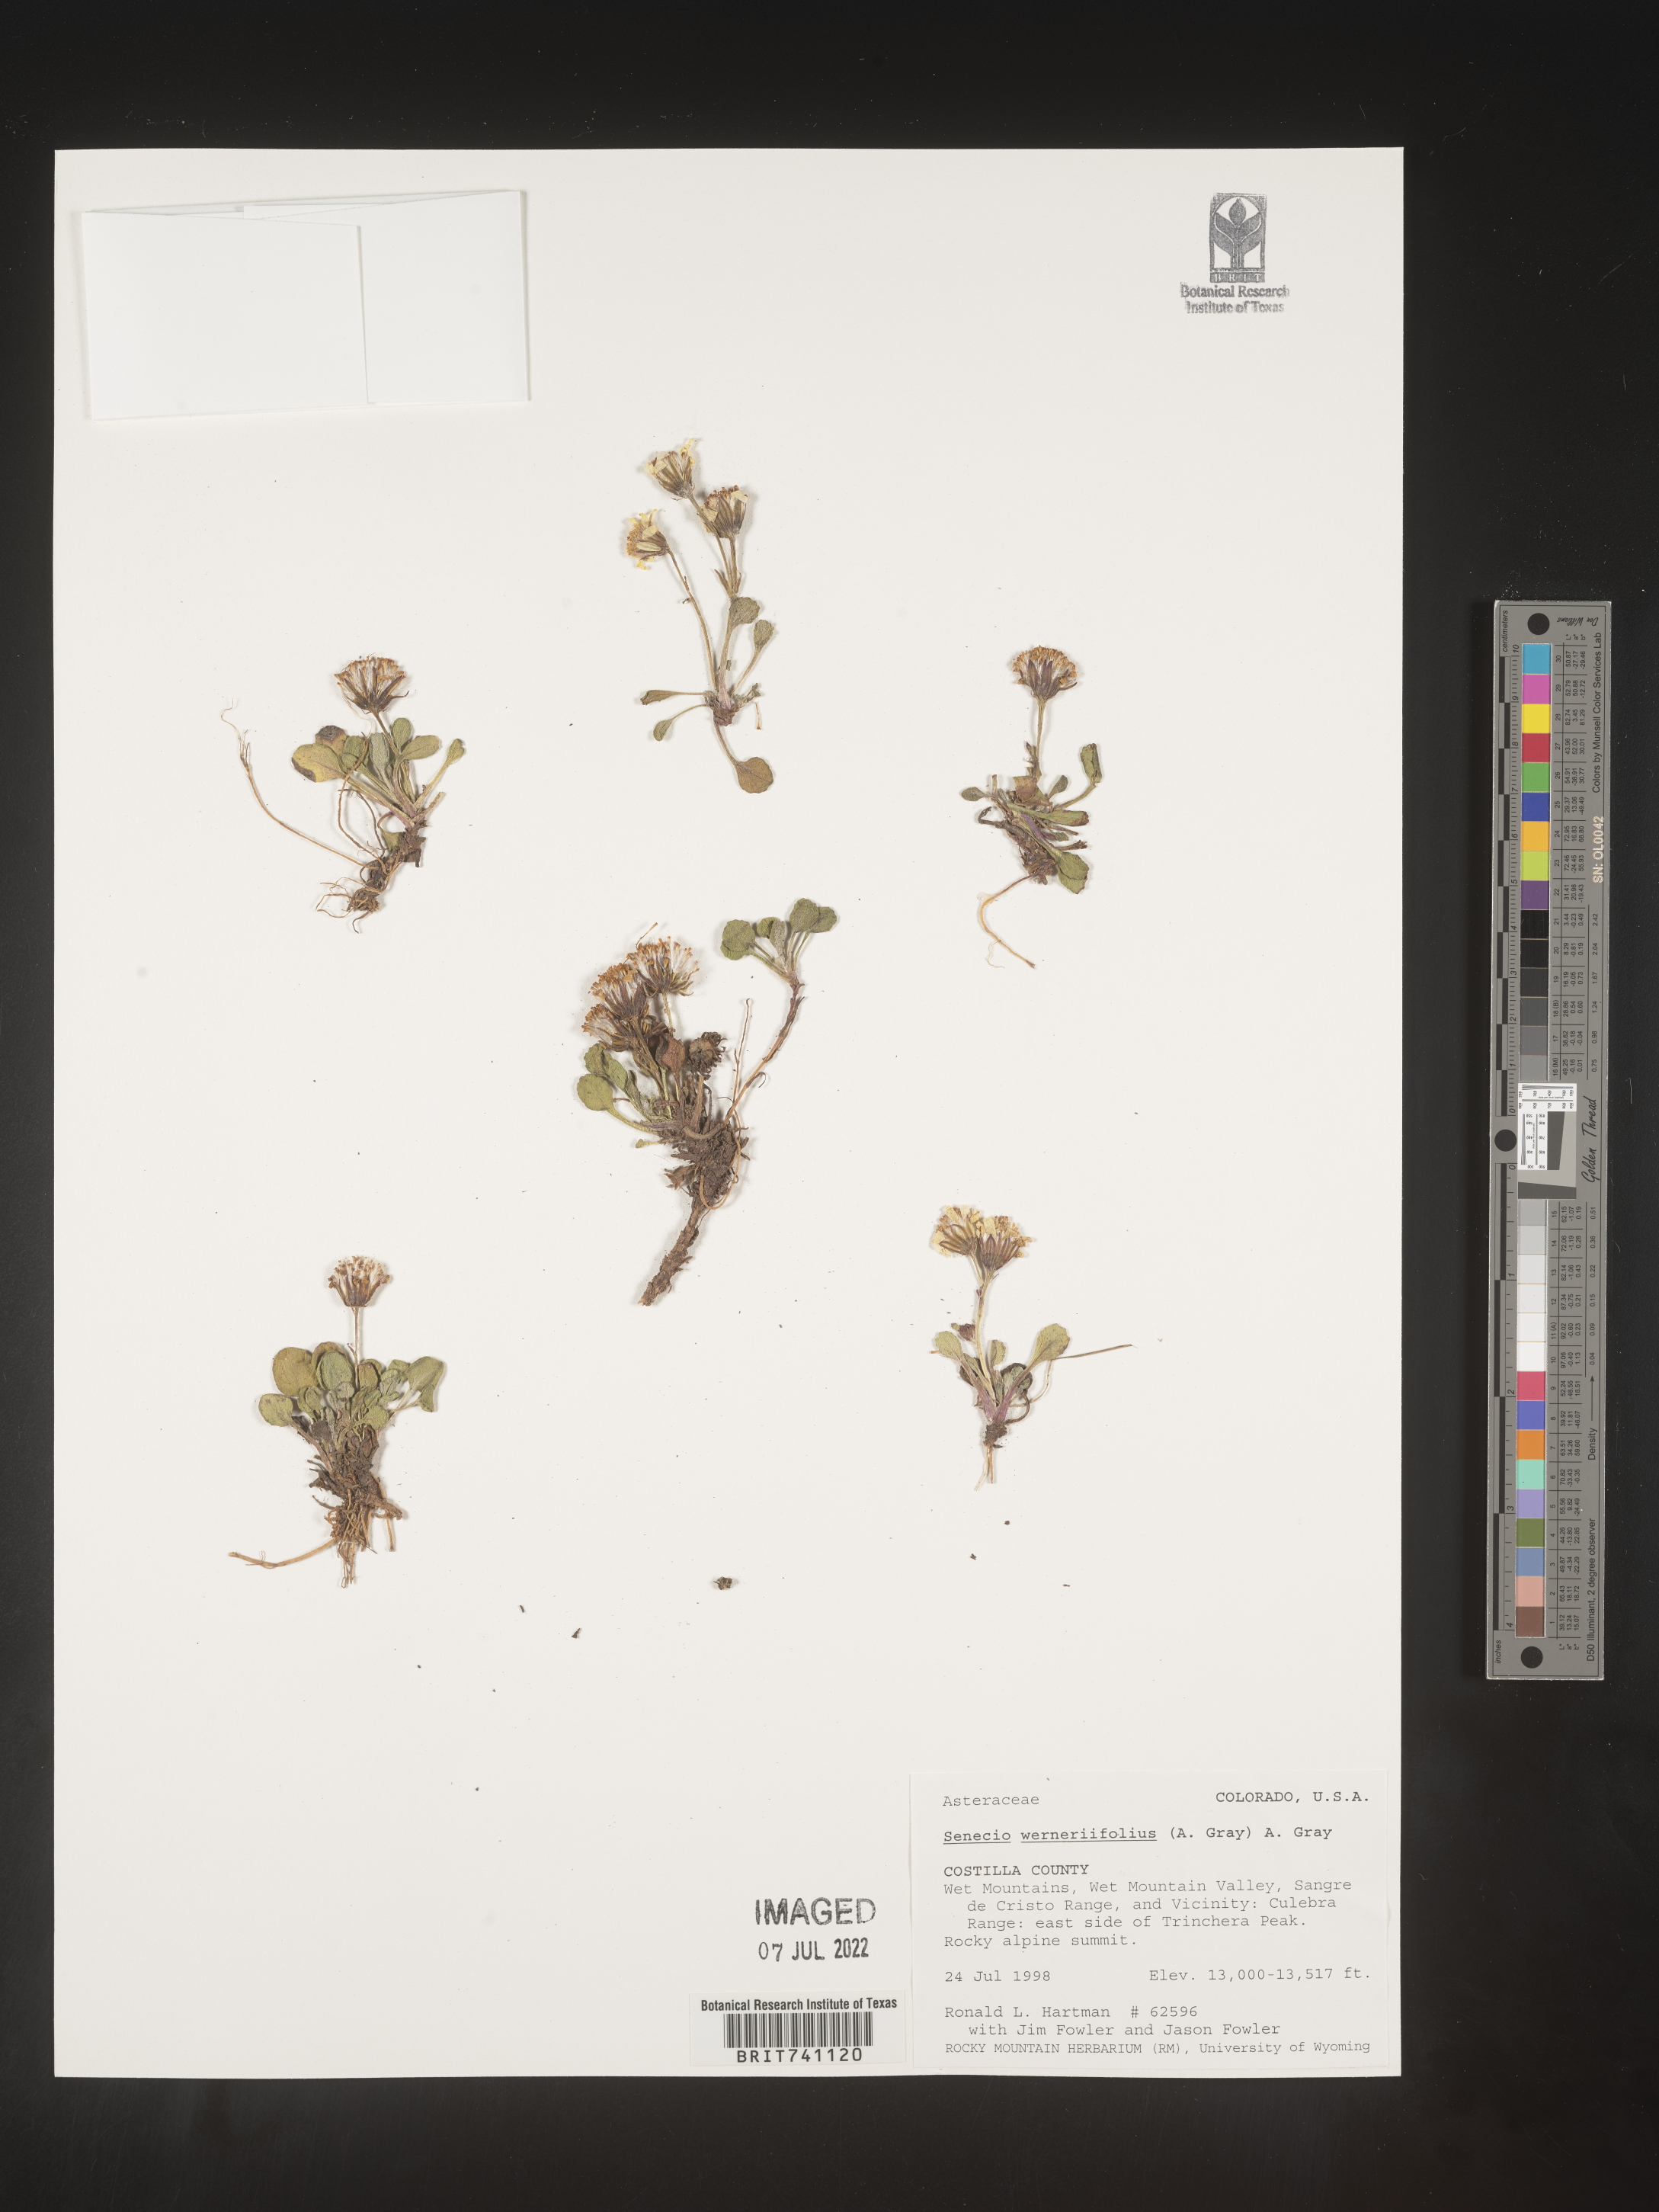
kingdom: Plantae
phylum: Tracheophyta
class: Magnoliopsida
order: Asterales
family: Asteraceae
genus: Packera
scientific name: Packera werneriifolia
